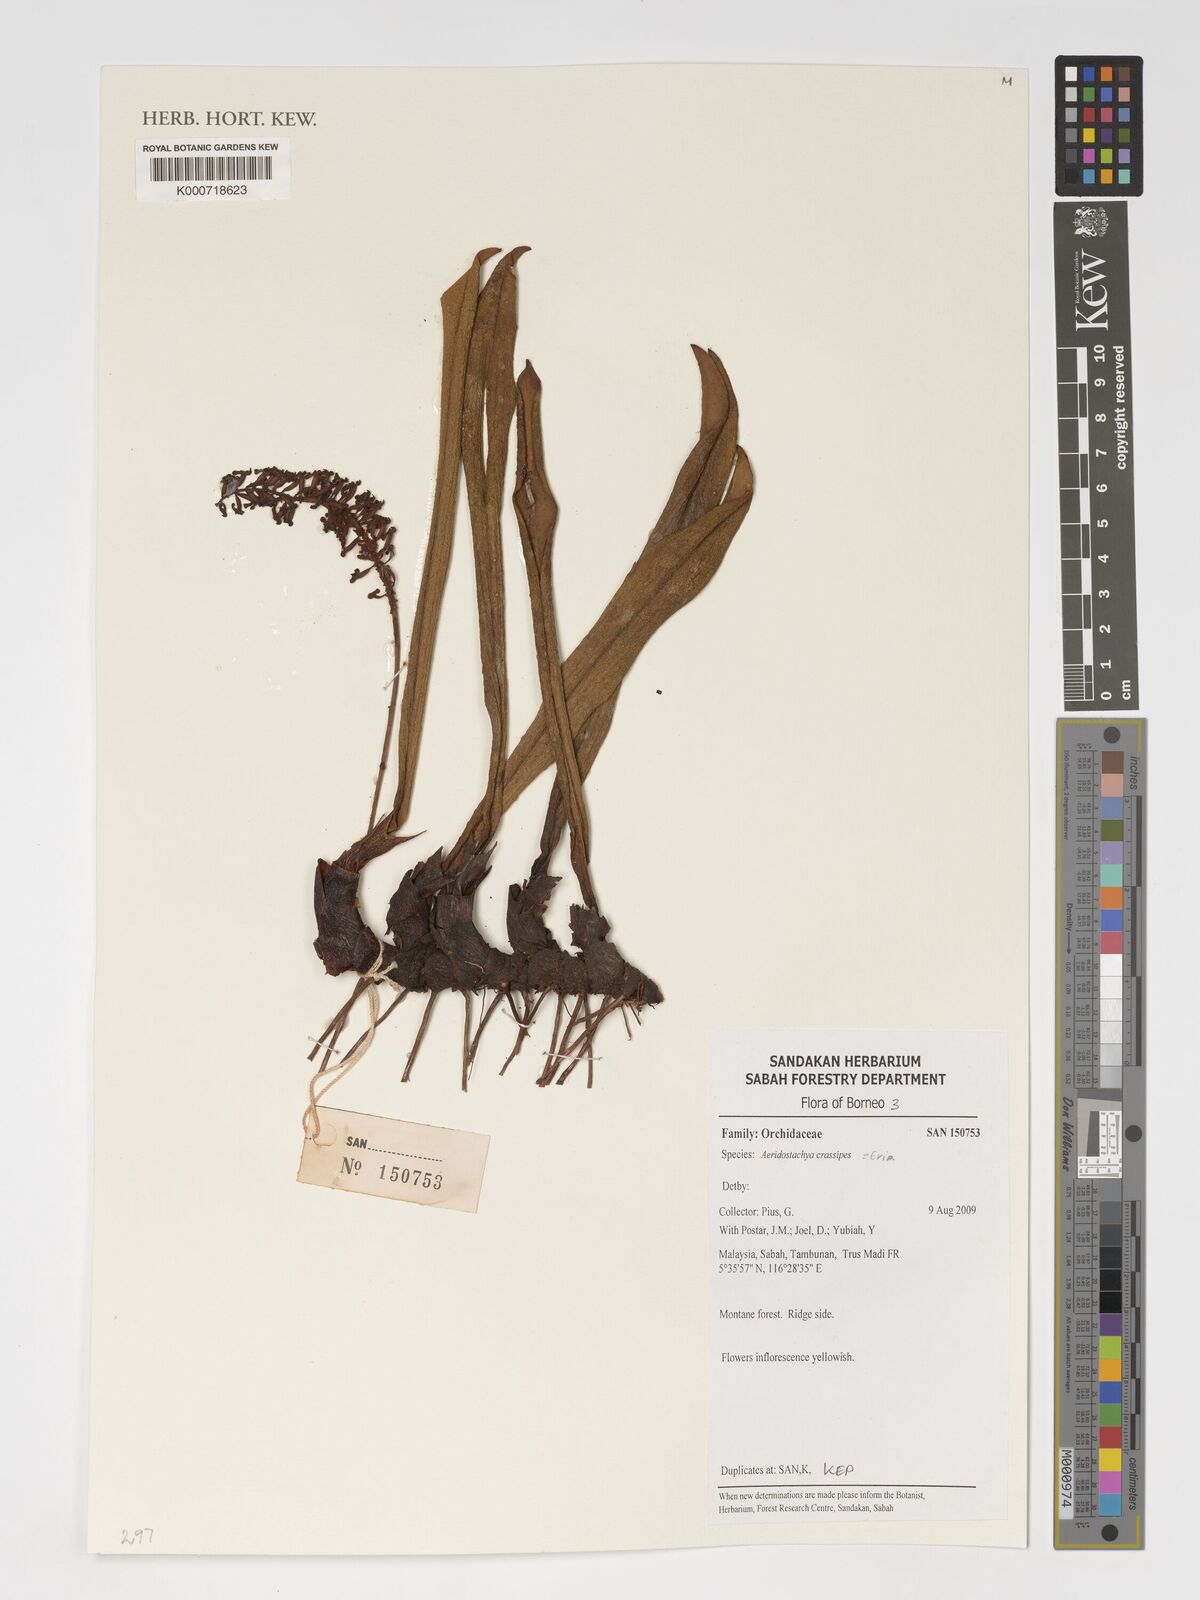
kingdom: Plantae
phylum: Tracheophyta
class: Liliopsida
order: Asparagales
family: Orchidaceae
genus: Aeridostachya
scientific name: Aeridostachya crassipes
